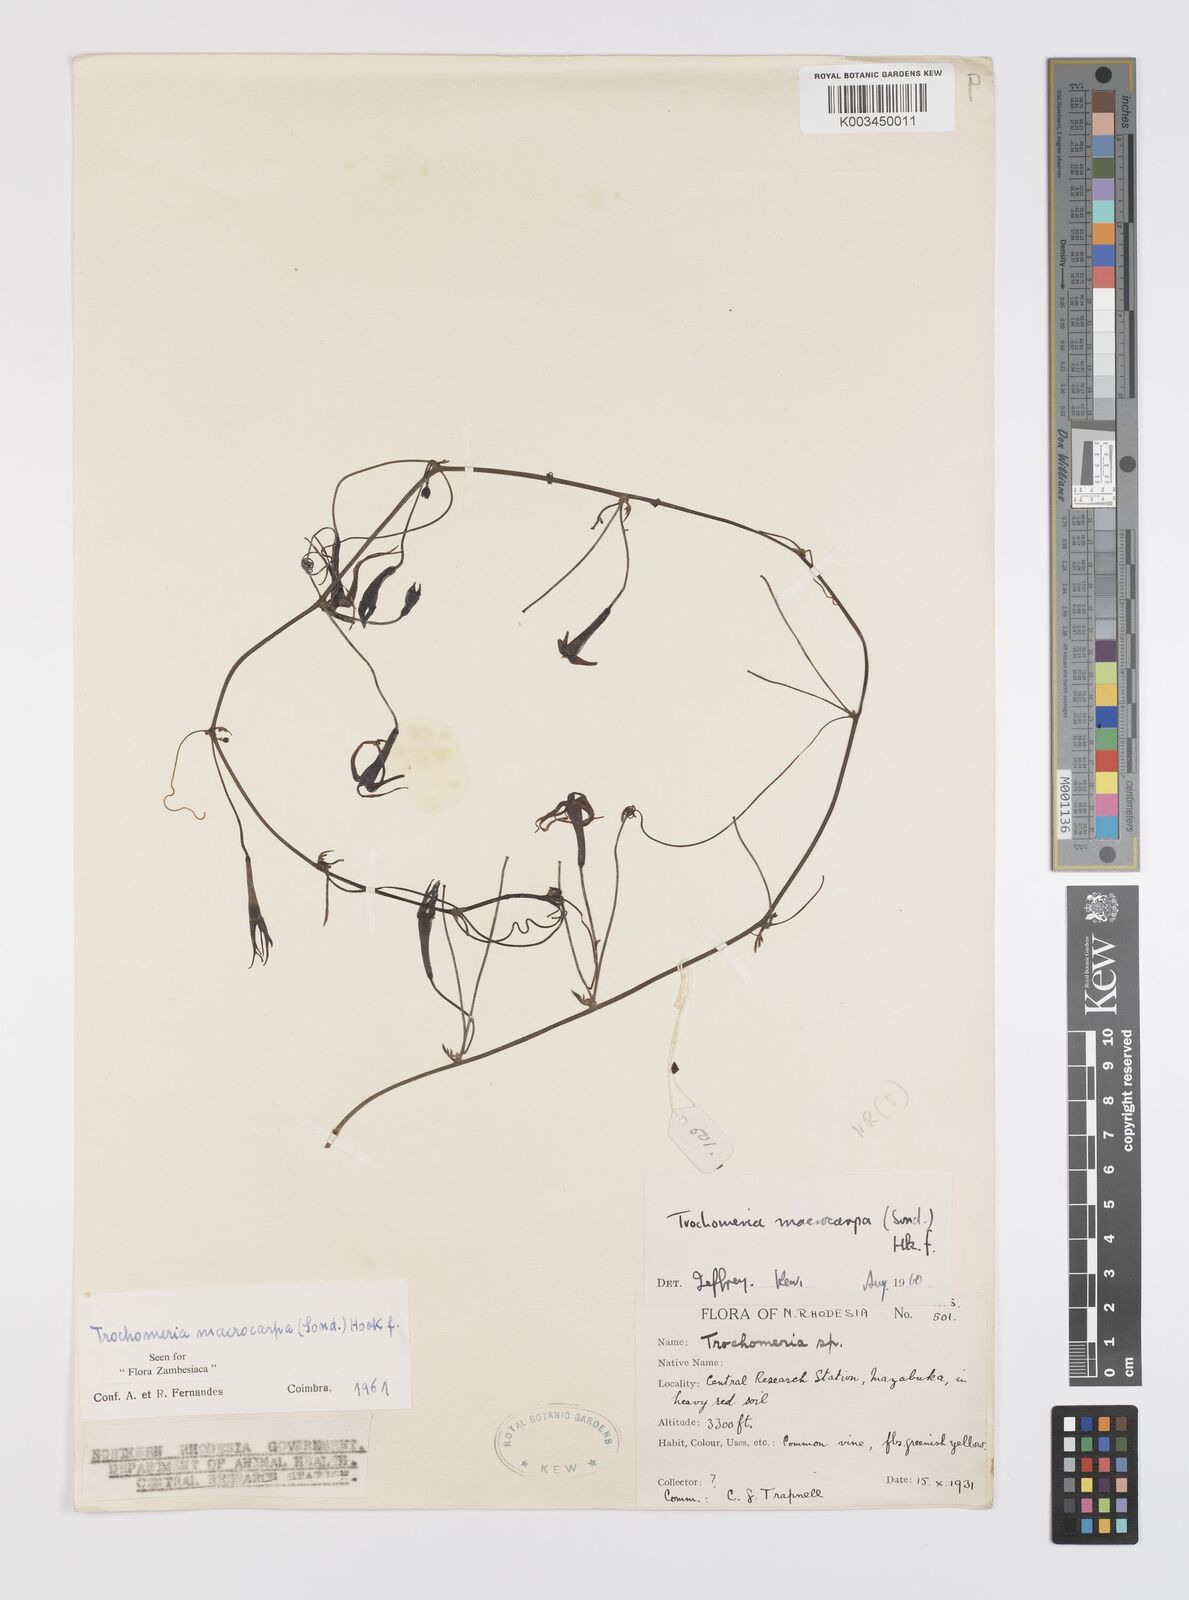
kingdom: Plantae
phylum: Tracheophyta
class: Magnoliopsida
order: Cucurbitales
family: Cucurbitaceae
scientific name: Cucurbitaceae
